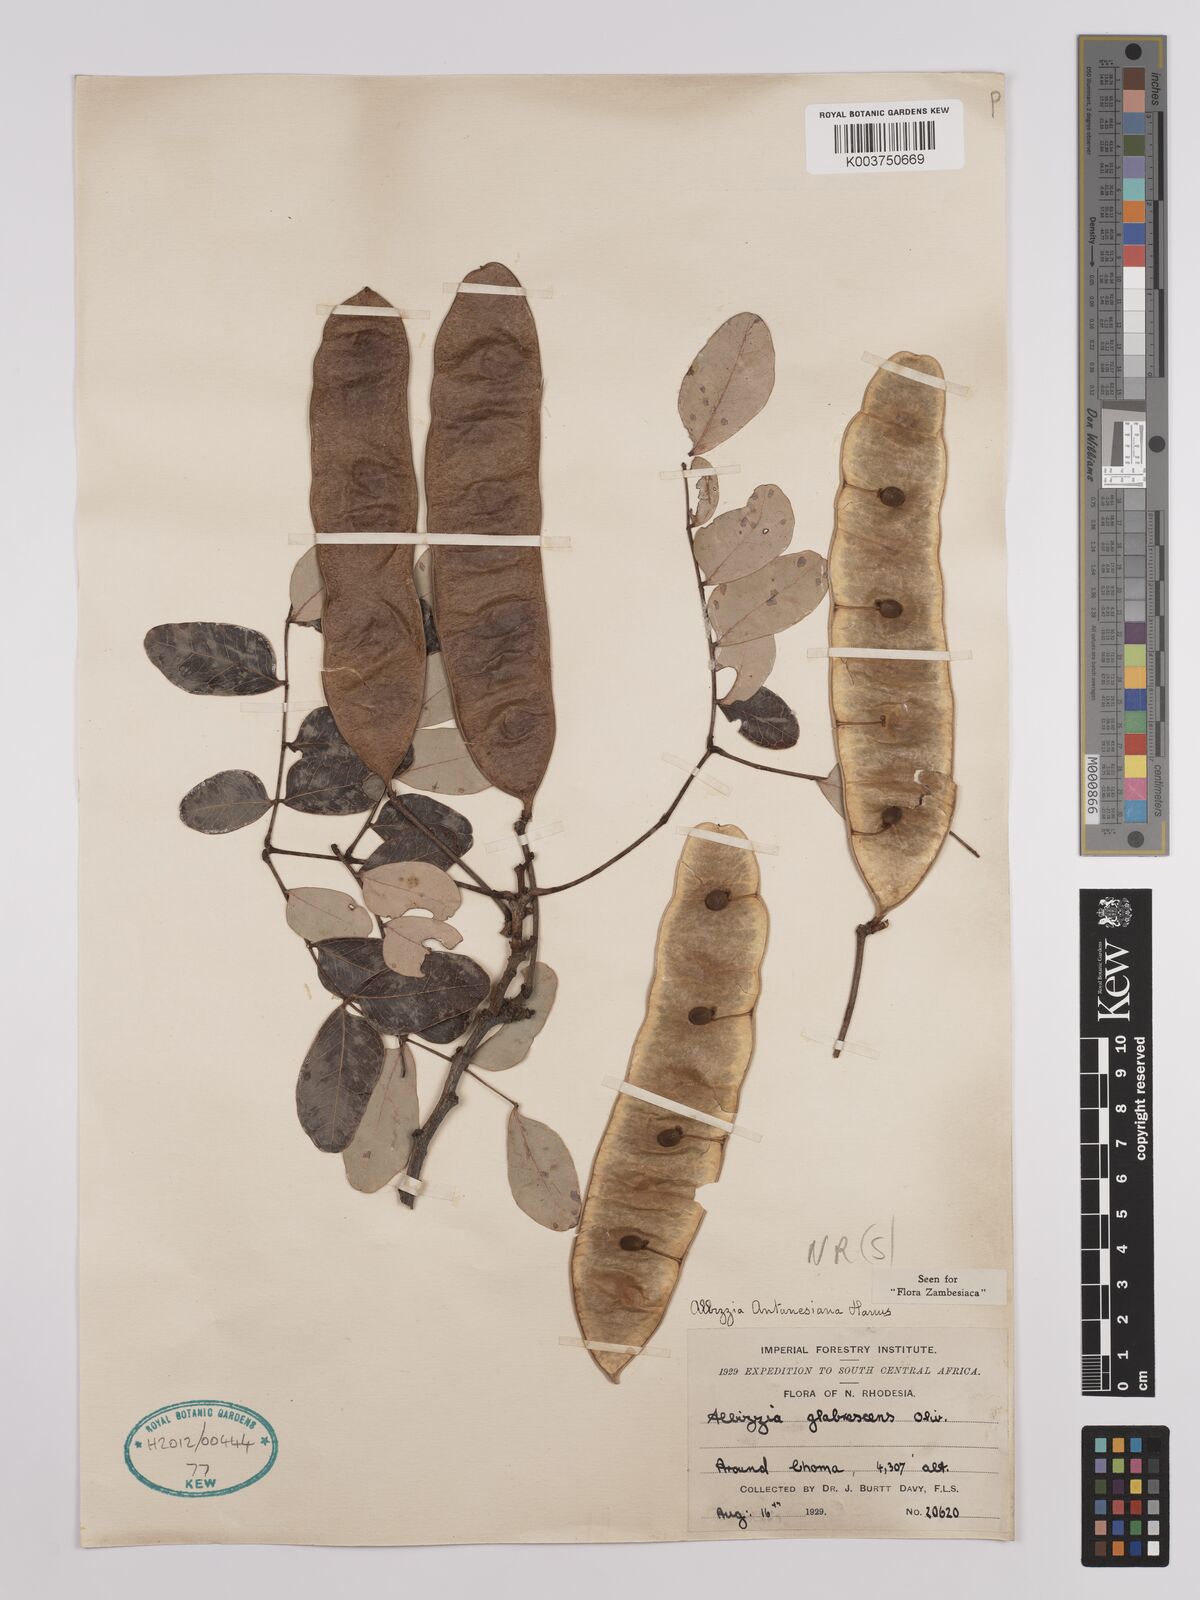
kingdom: Plantae
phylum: Tracheophyta
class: Magnoliopsida
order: Fabales
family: Fabaceae
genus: Albizia
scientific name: Albizia antunesiana
